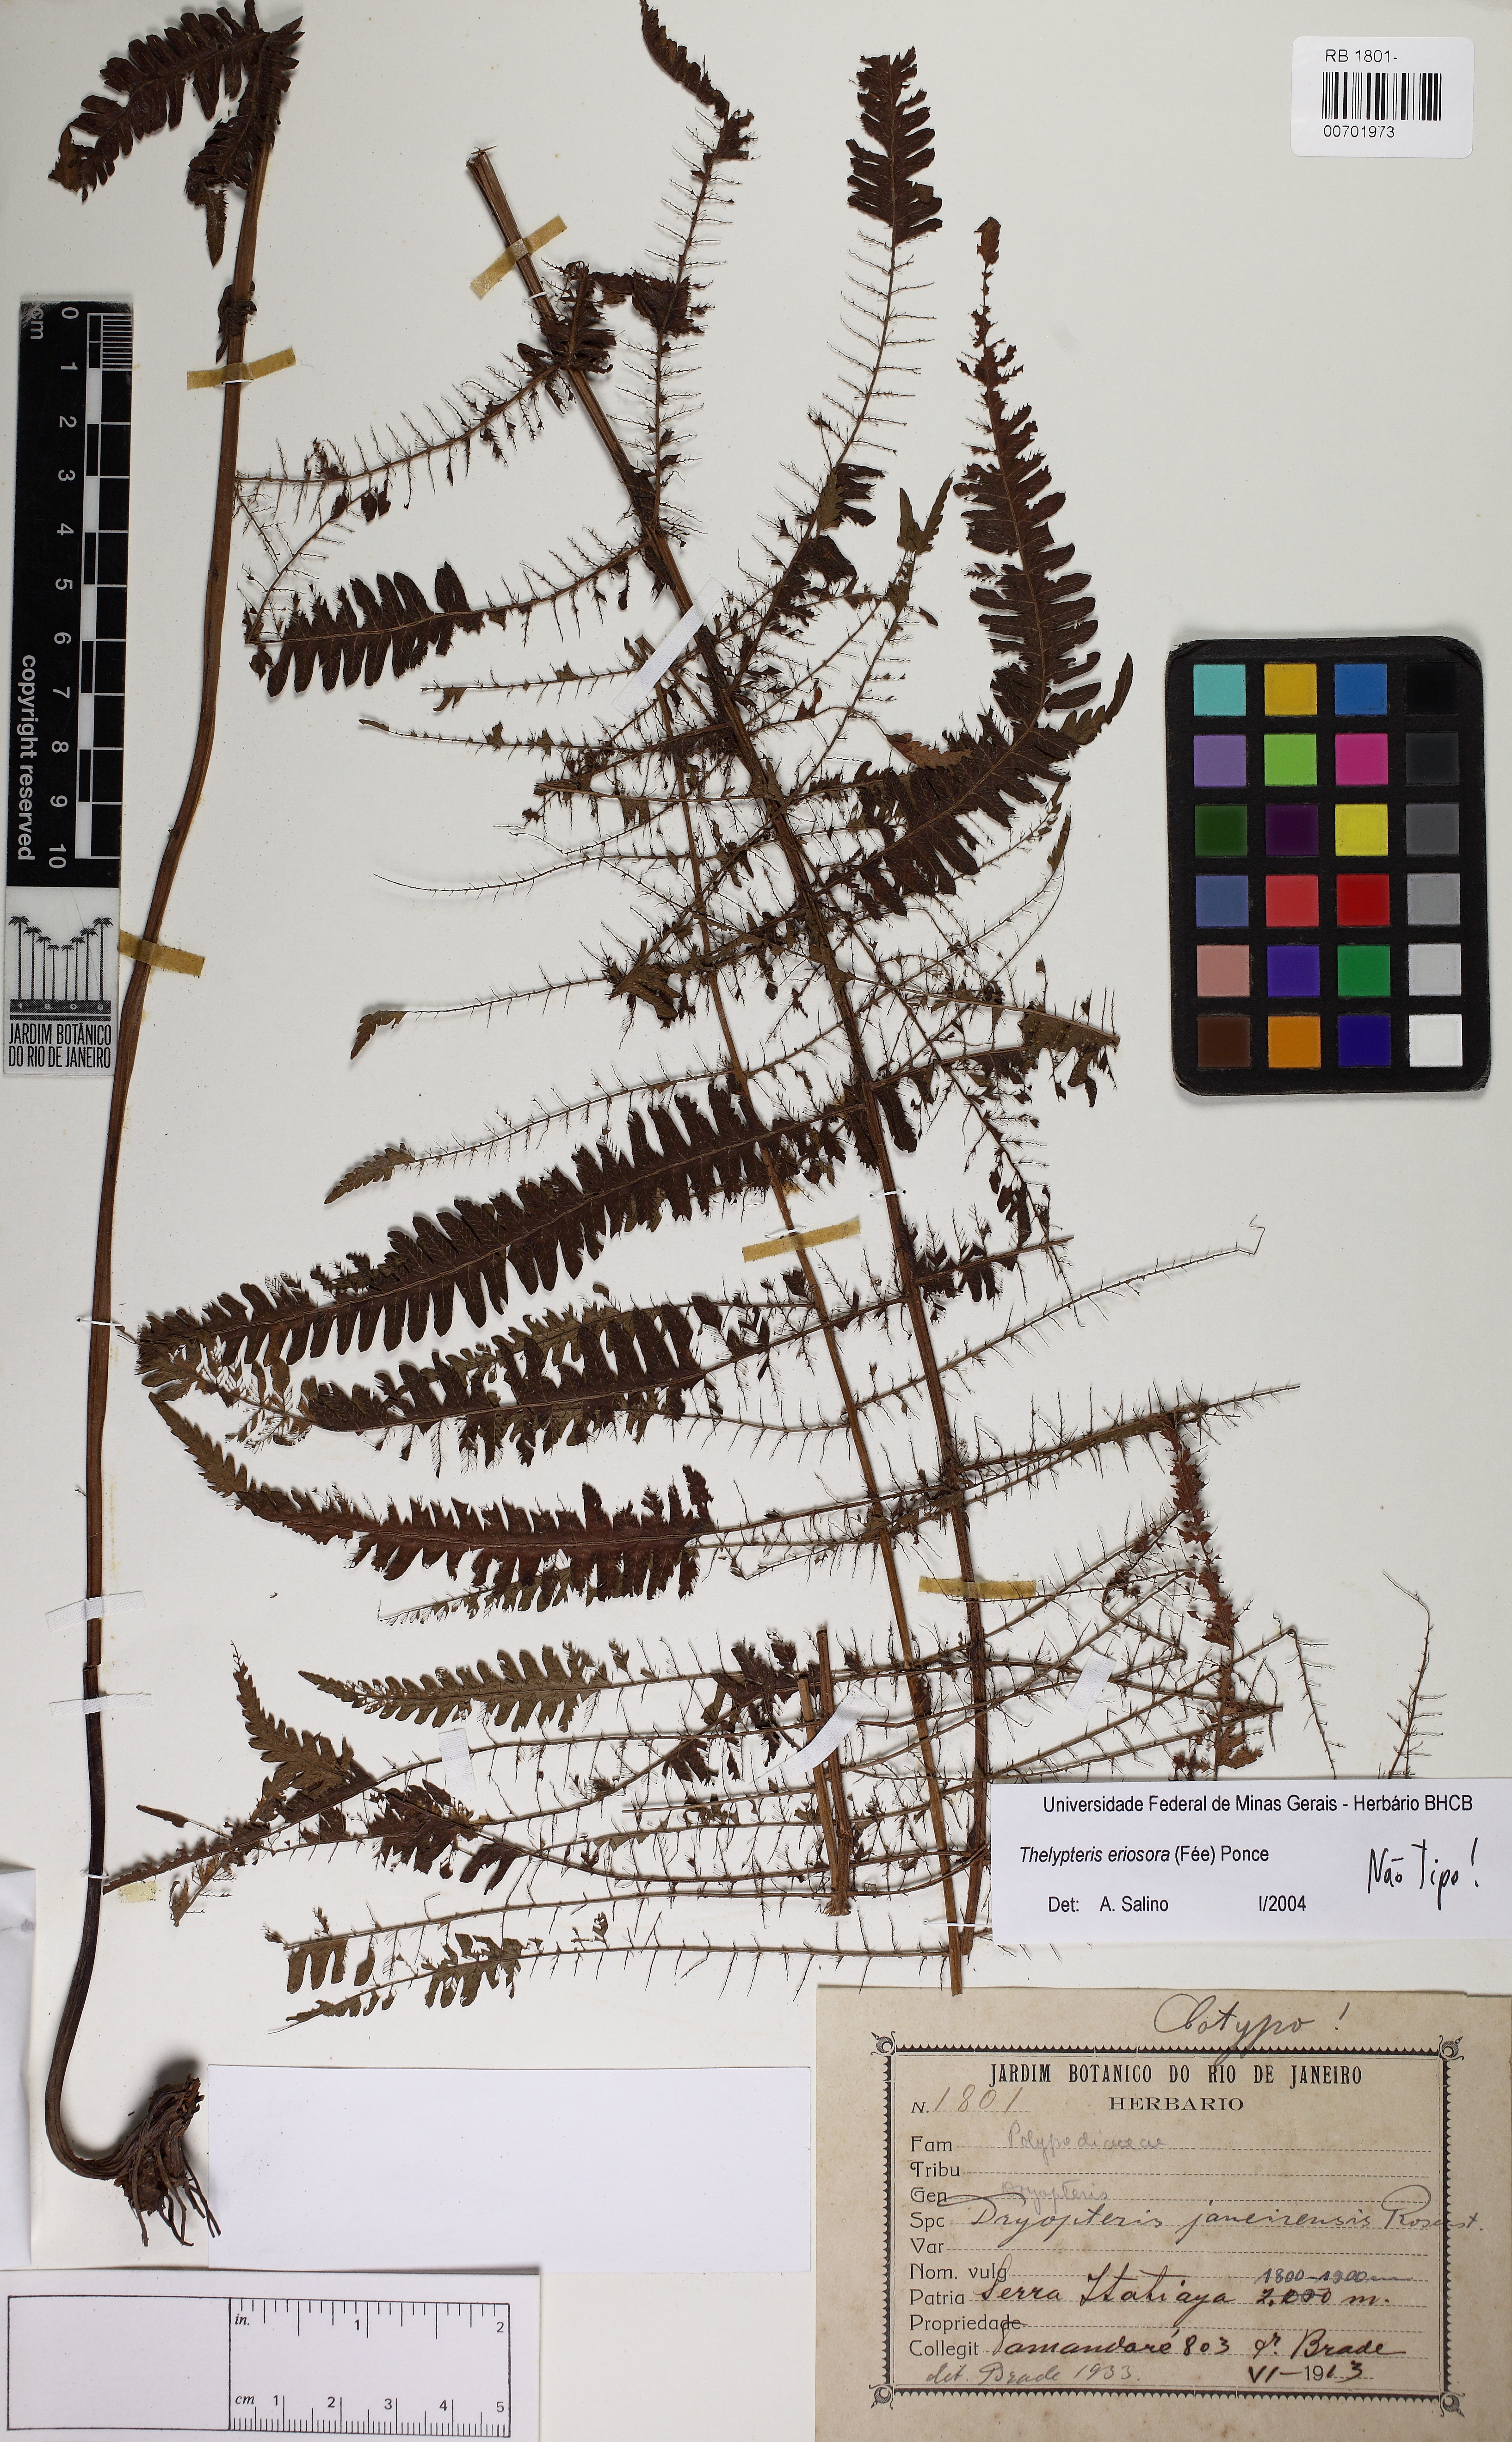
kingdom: Plantae
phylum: Tracheophyta
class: Polypodiopsida
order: Polypodiales
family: Thelypteridaceae
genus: Amauropelta
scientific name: Amauropelta eriosorus
